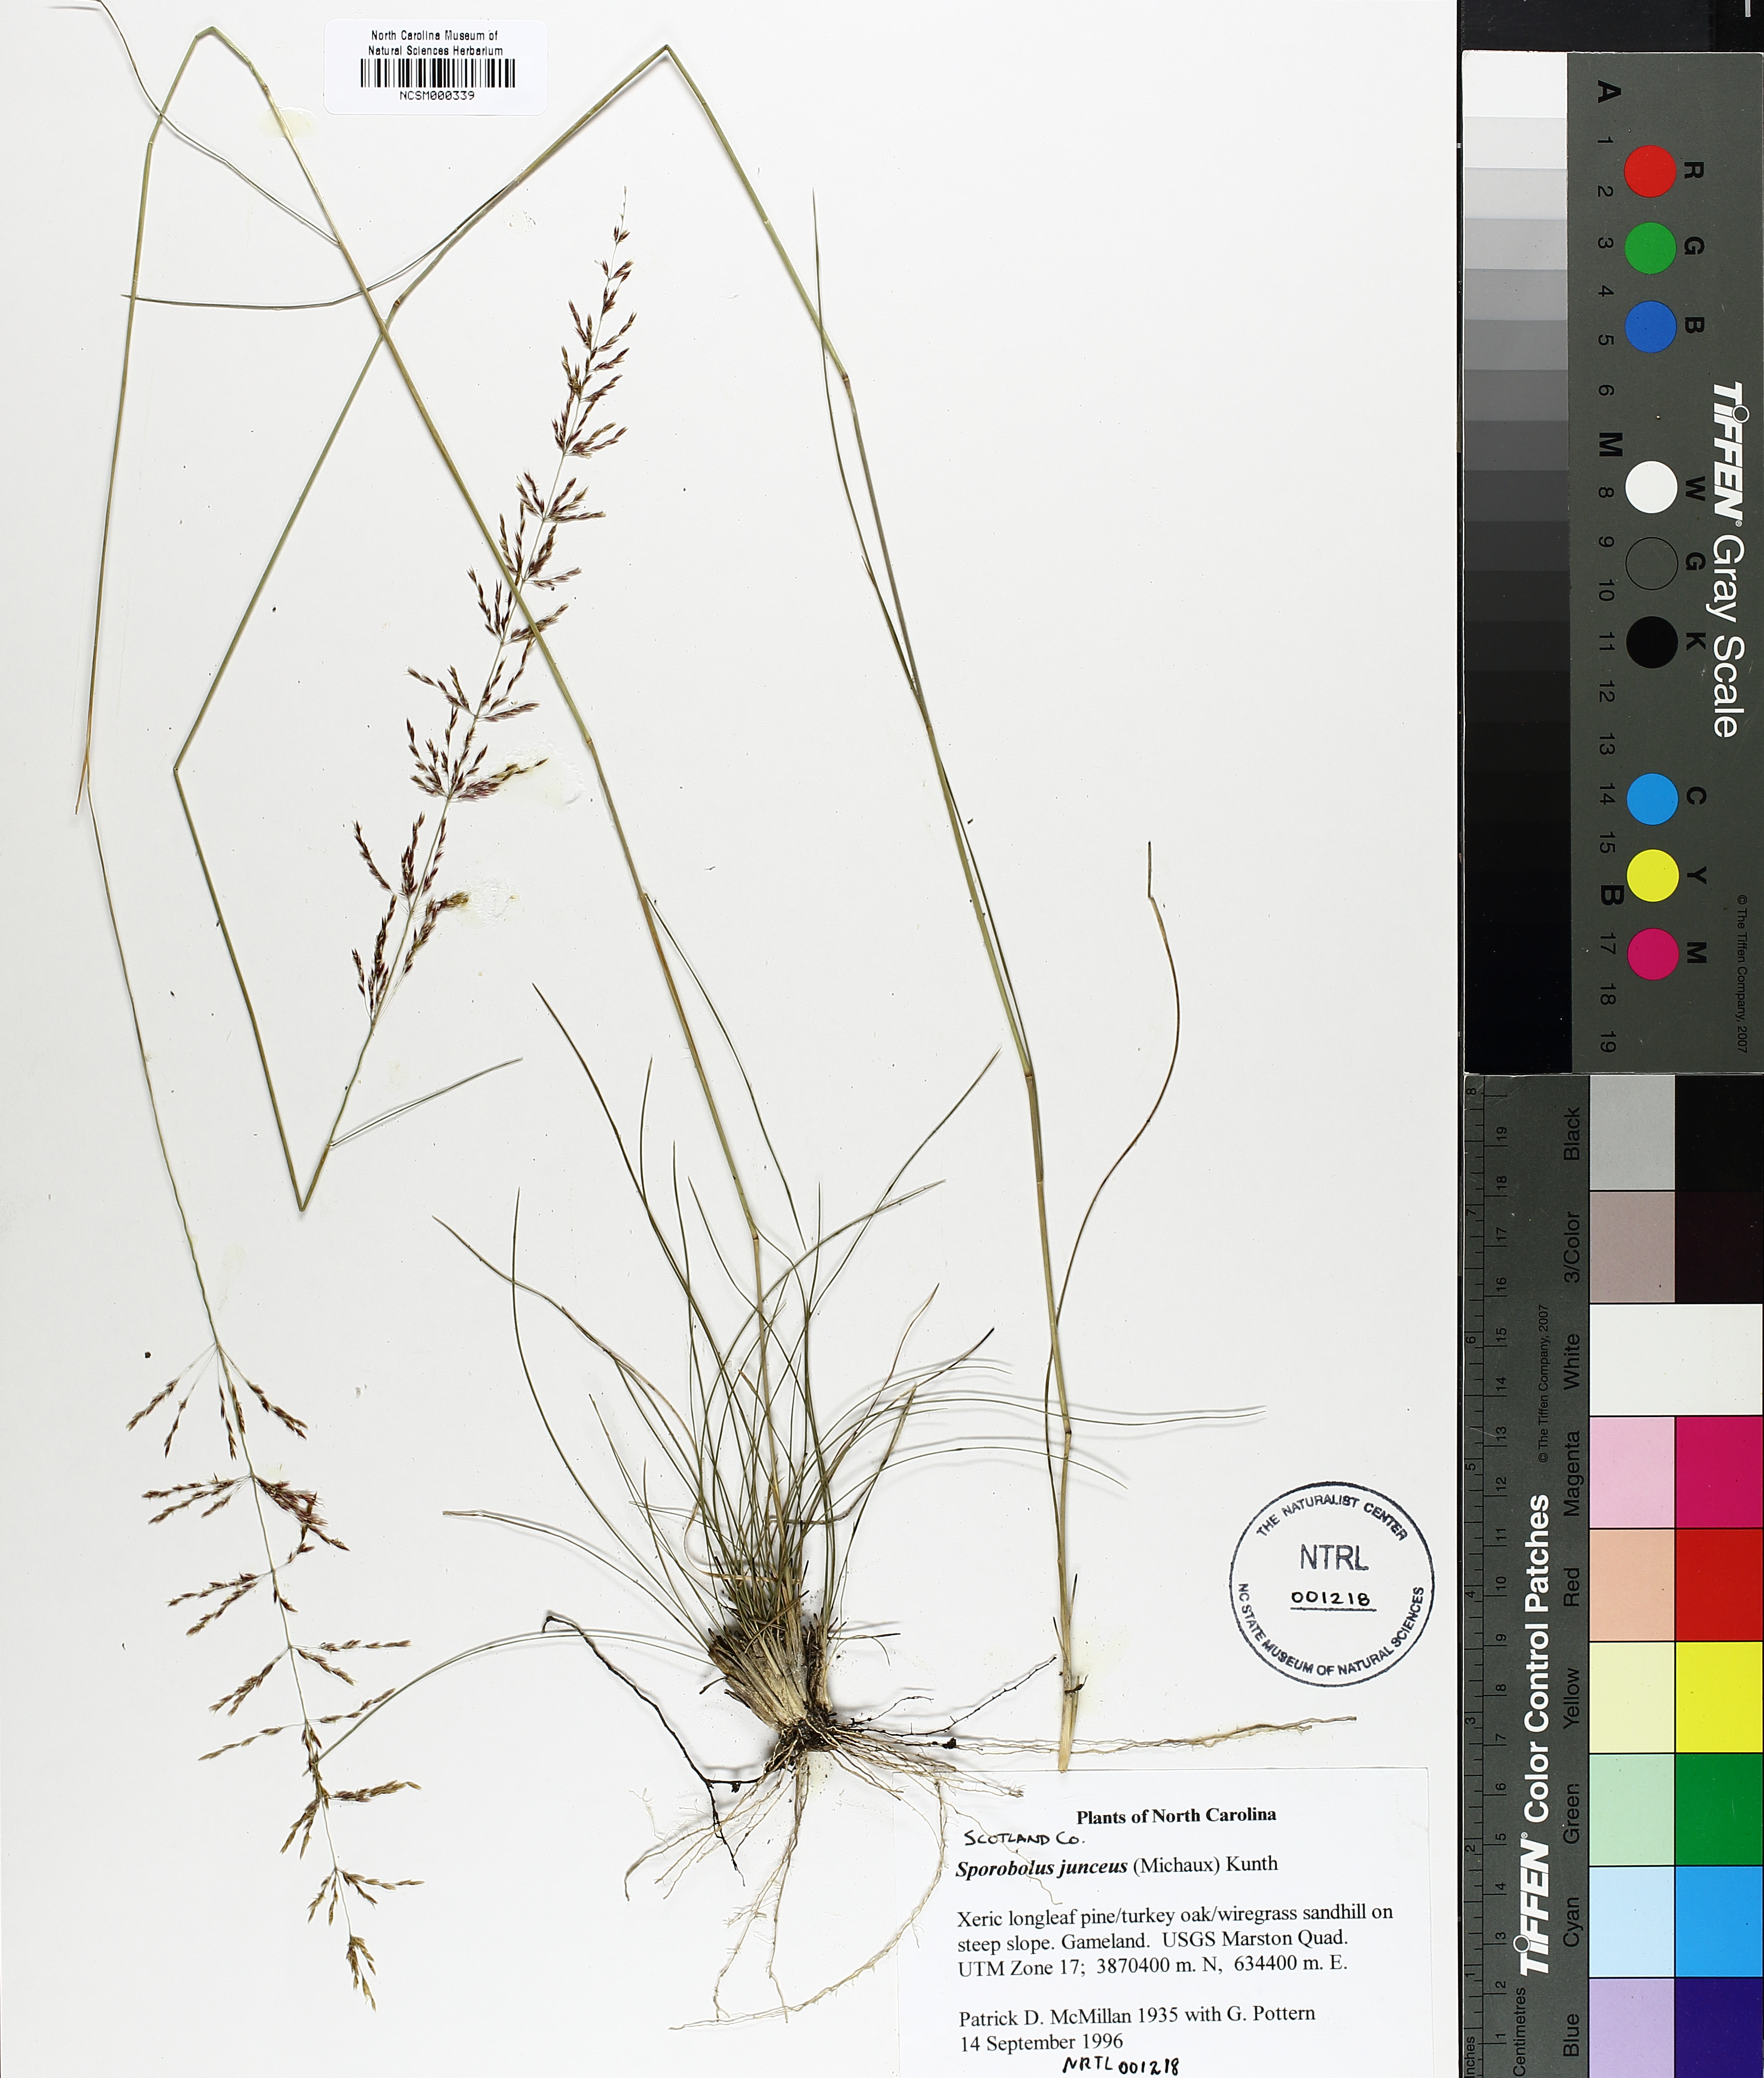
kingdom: Plantae
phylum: Tracheophyta
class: Liliopsida
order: Poales
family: Poaceae
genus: Sporobolus
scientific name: Sporobolus junceus
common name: Lizard grass
